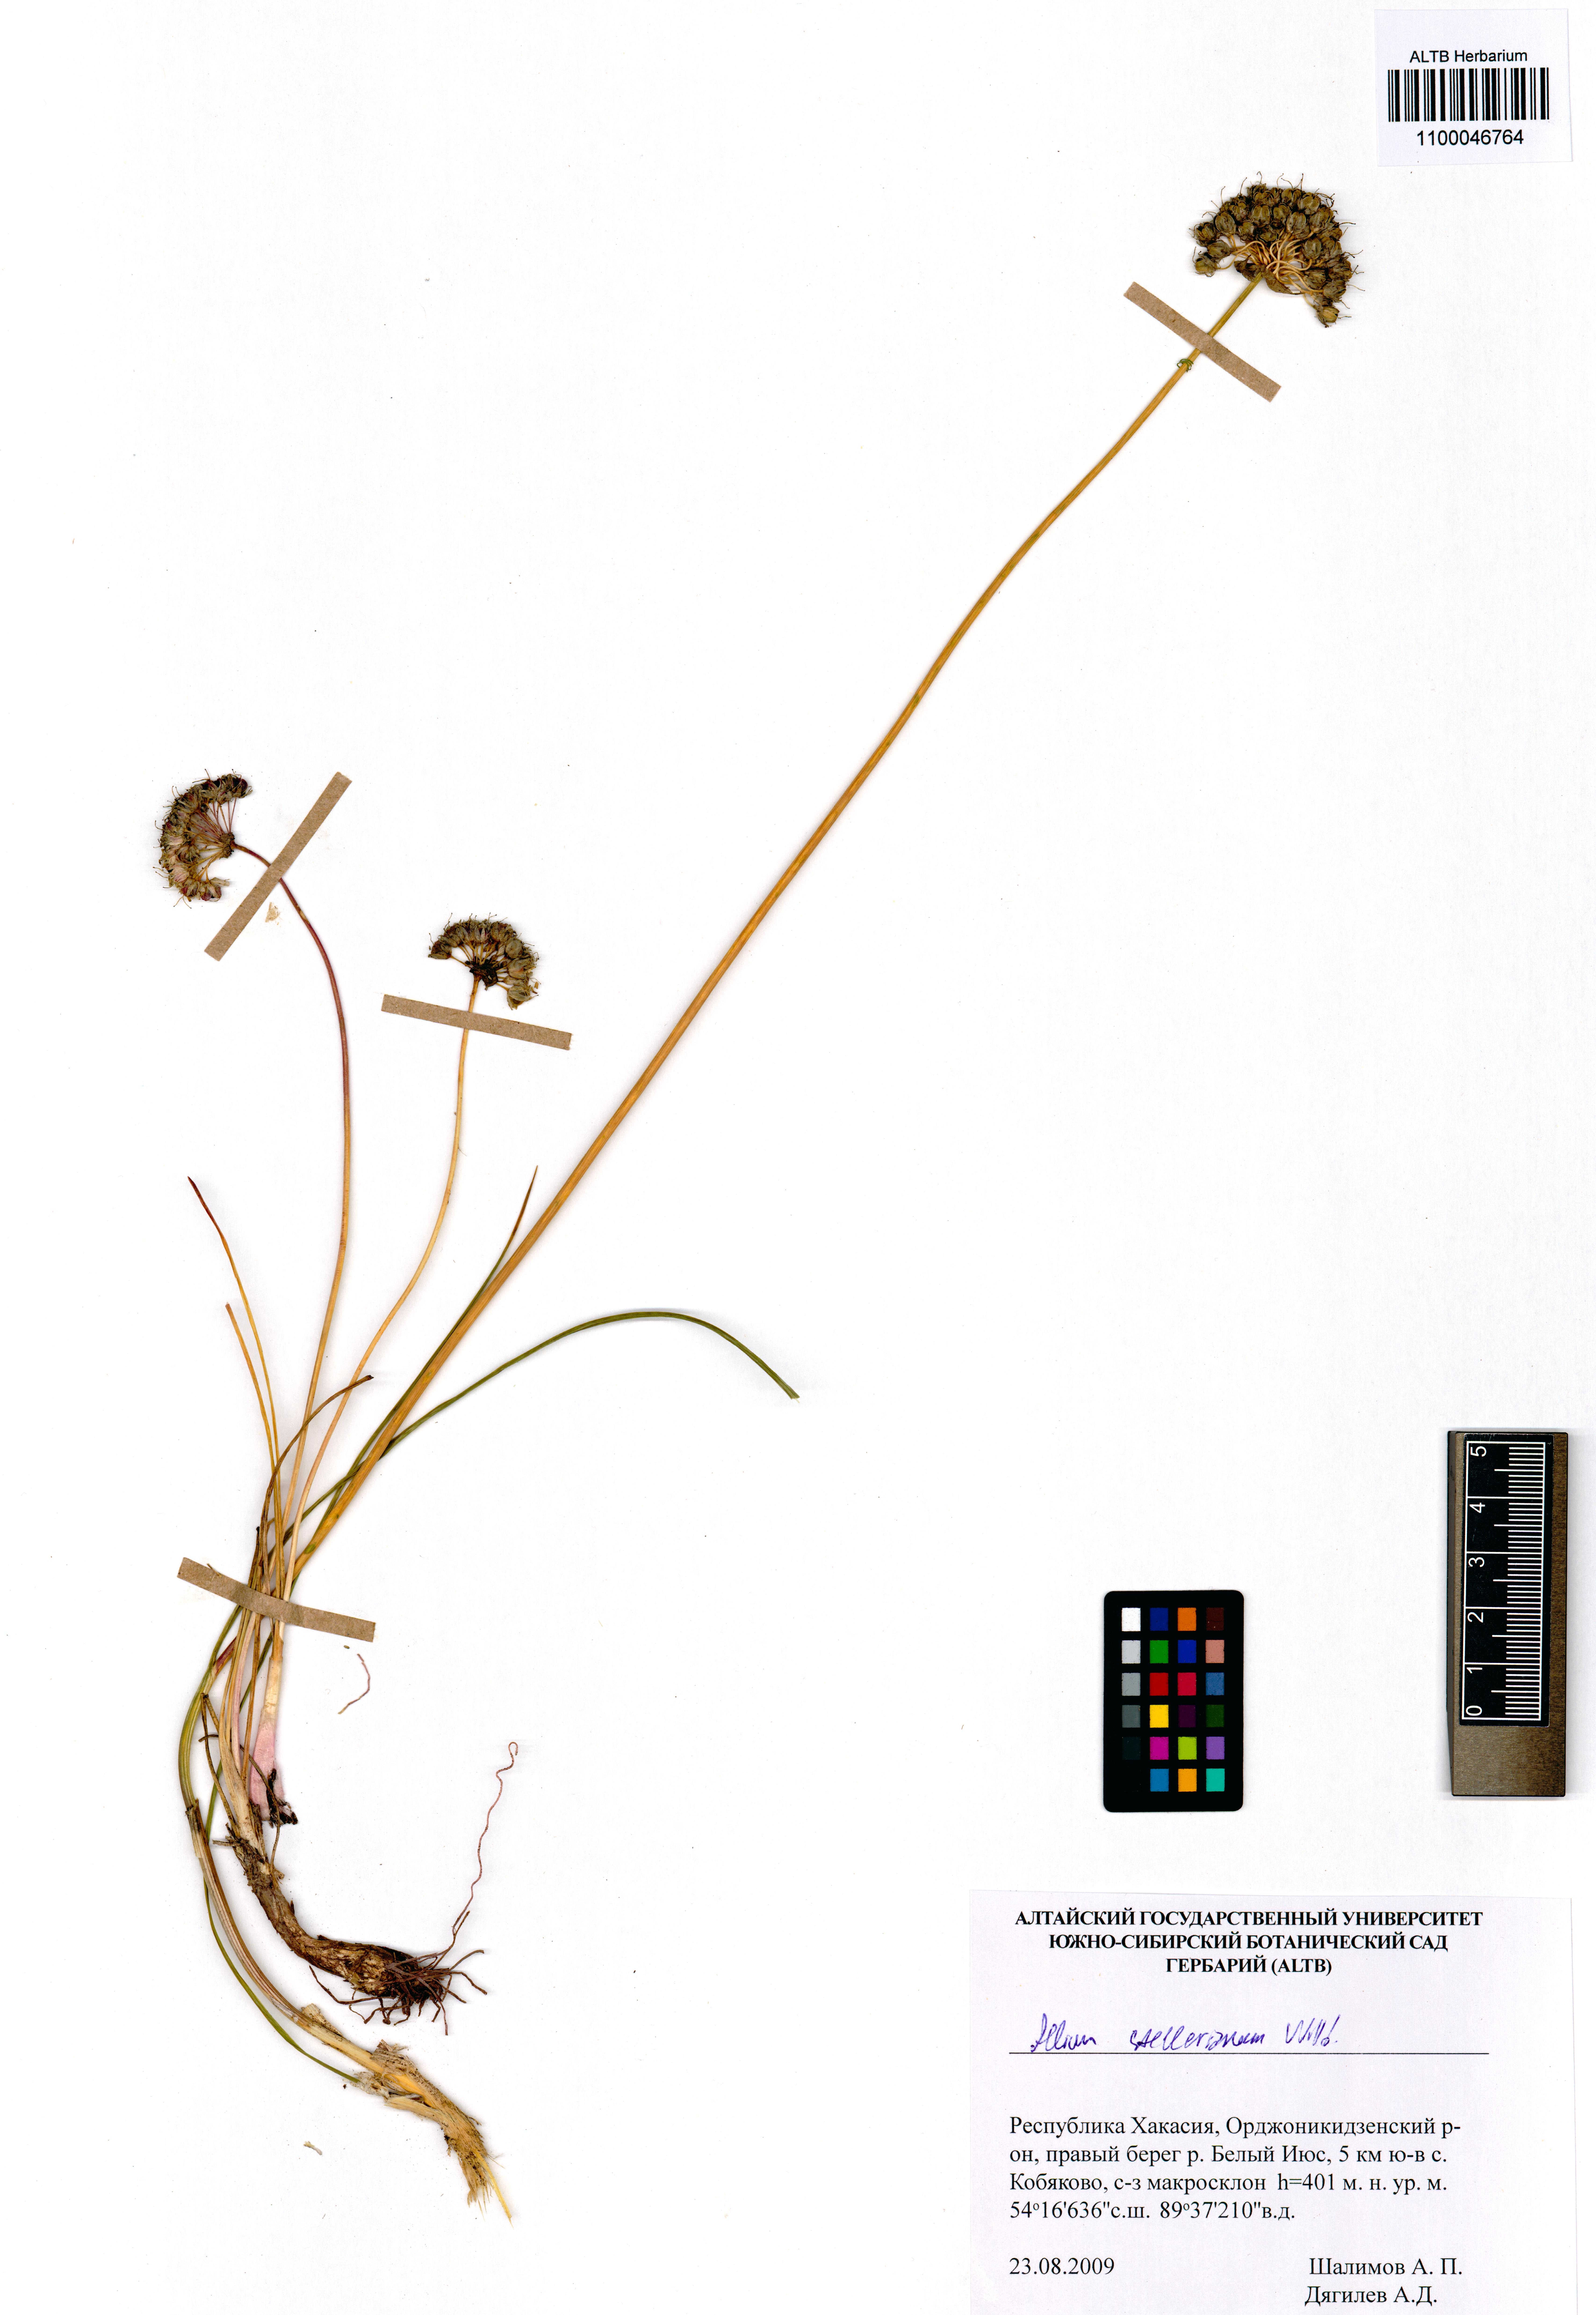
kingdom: Plantae
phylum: Tracheophyta
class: Liliopsida
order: Asparagales
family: Amaryllidaceae
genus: Allium
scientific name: Allium stellerianum
